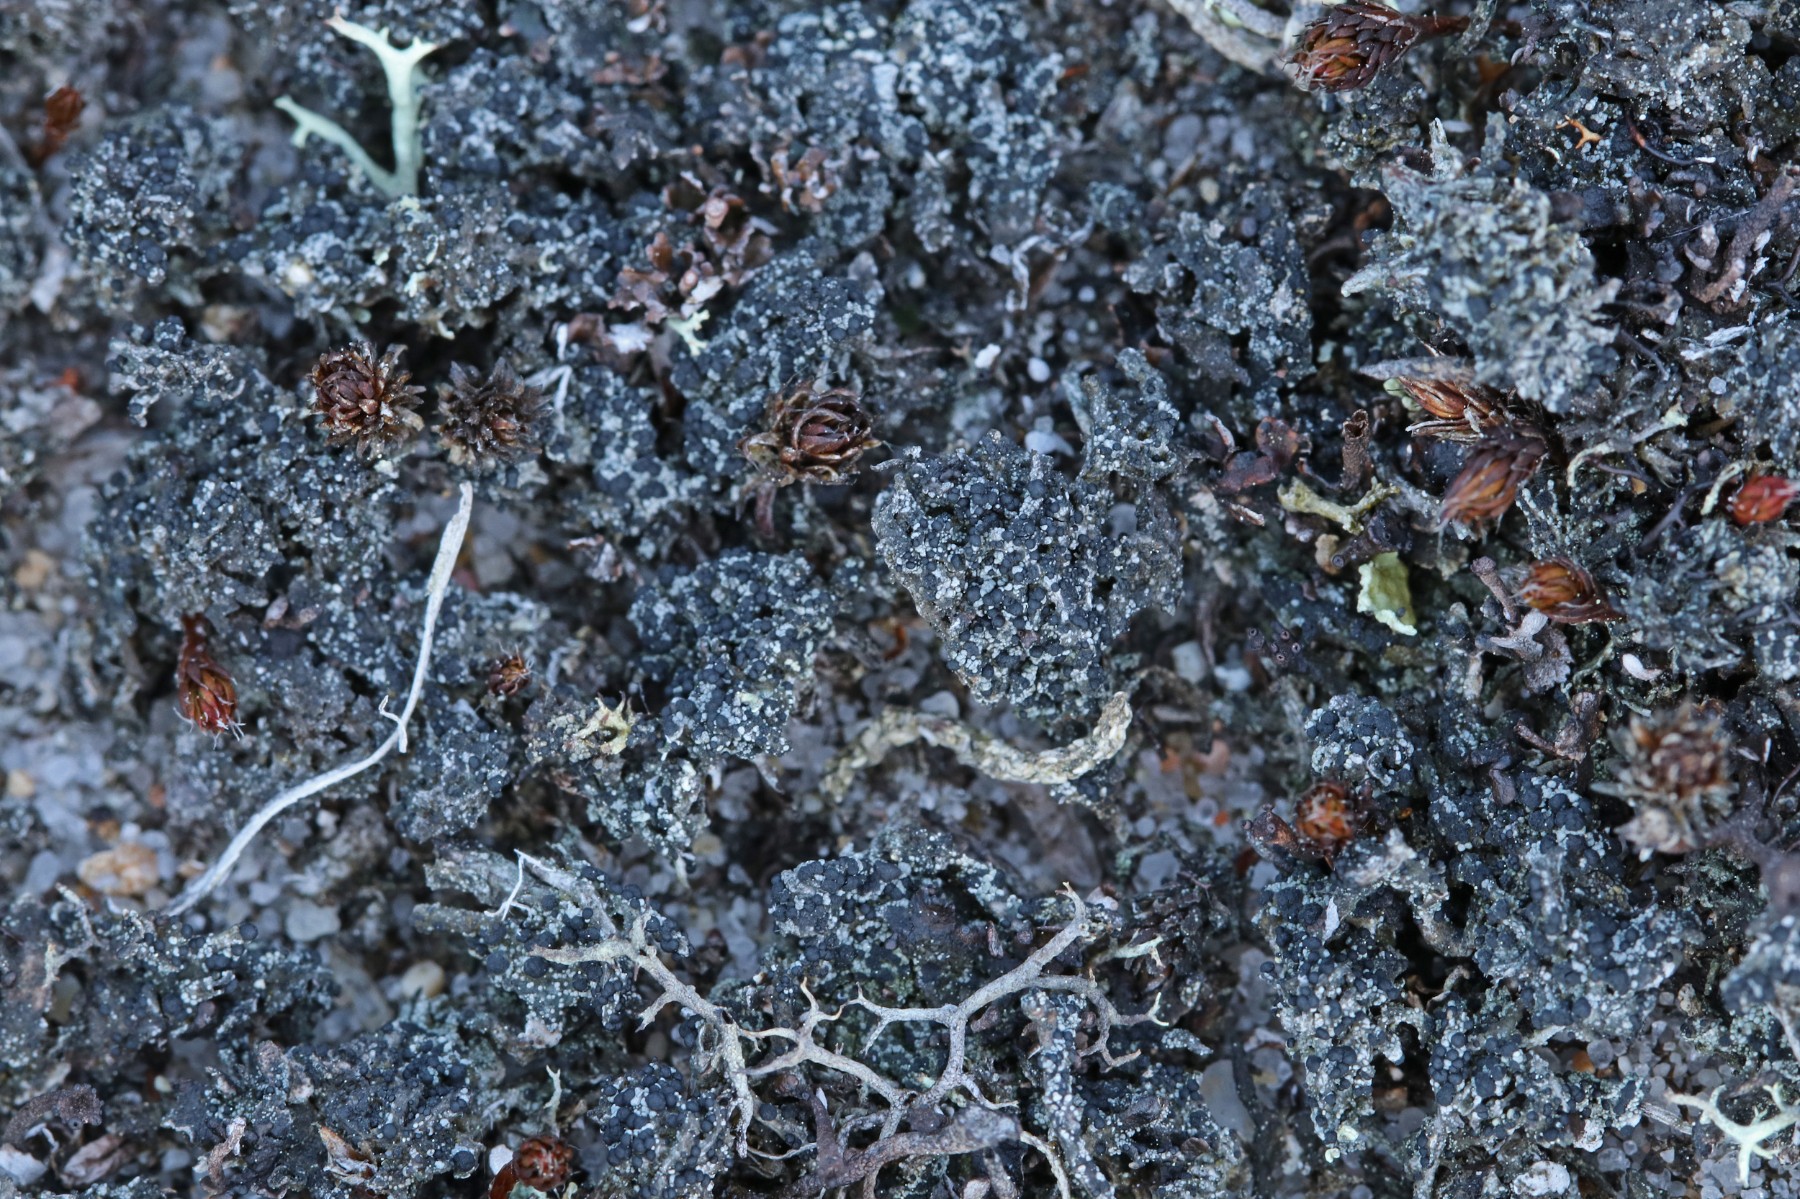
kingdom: Fungi
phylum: Ascomycota
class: Lecanoromycetes
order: Lecanorales
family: Byssolomataceae
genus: Micarea
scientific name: Micarea lignaria
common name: tørve-knaplav
